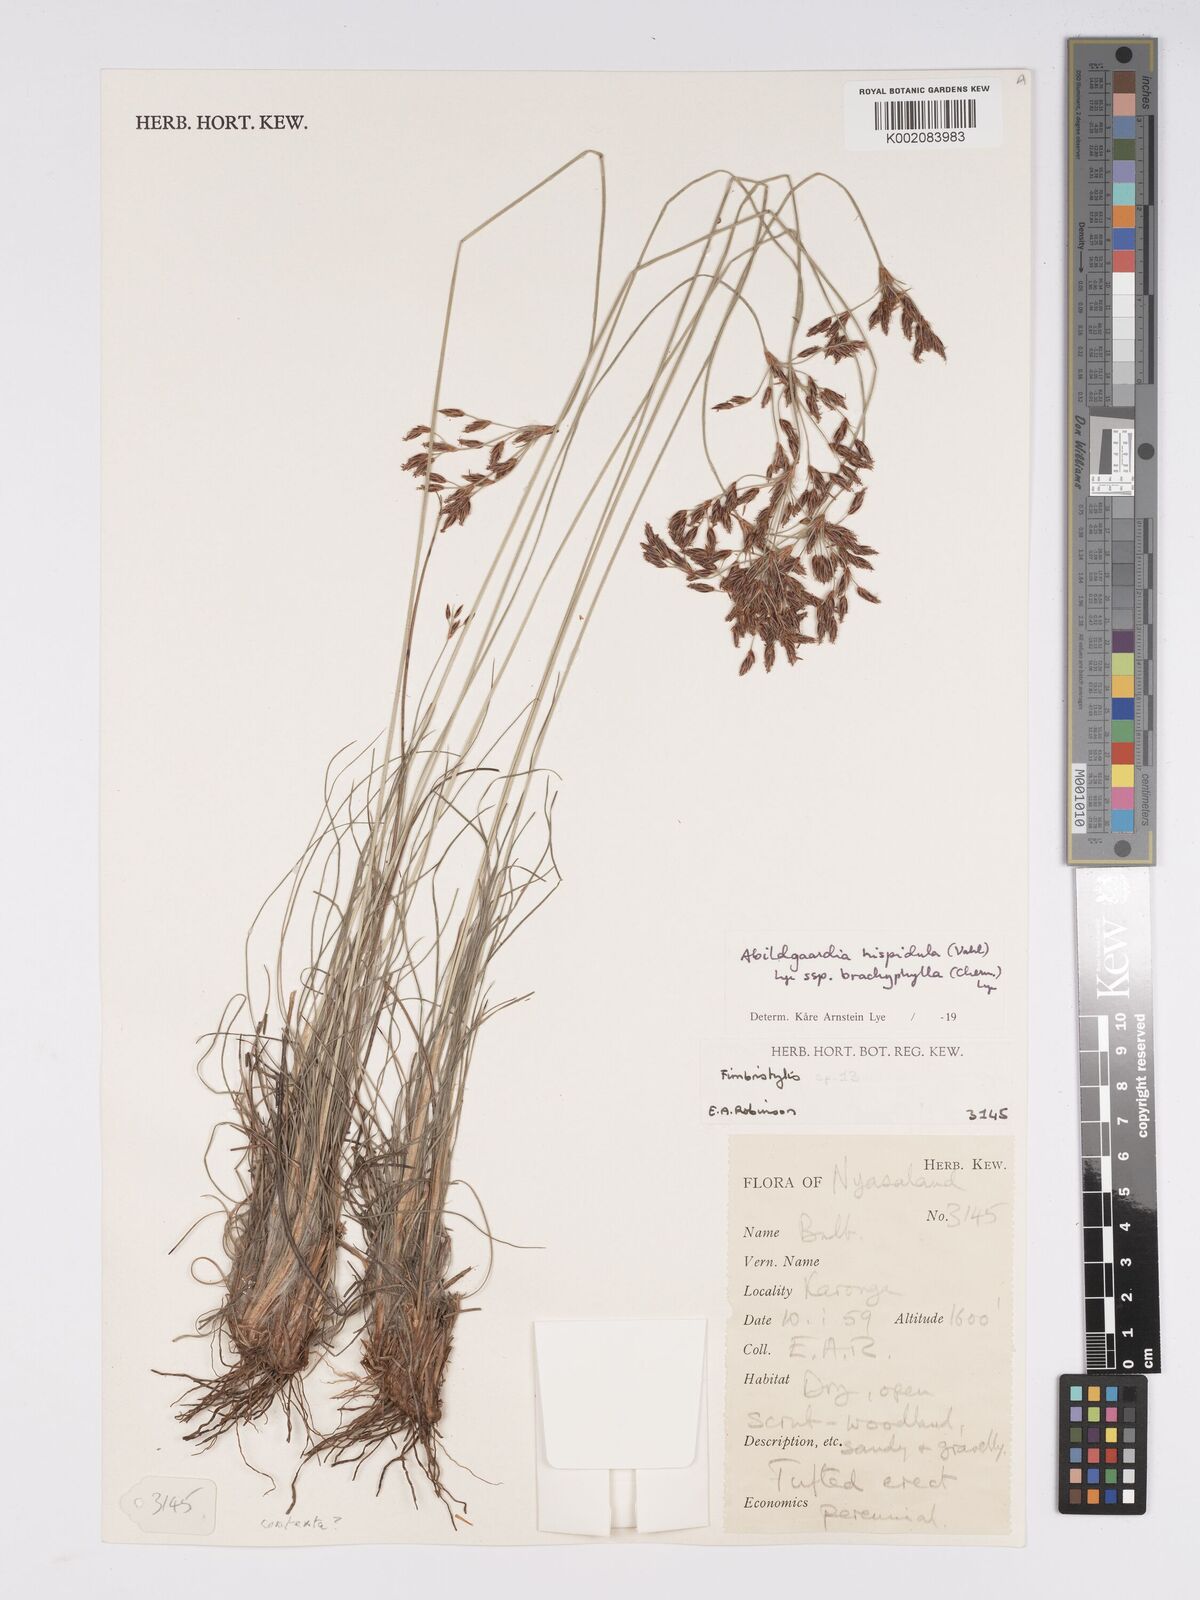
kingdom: Plantae
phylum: Tracheophyta
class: Liliopsida
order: Poales
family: Cyperaceae
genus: Bulbostylis
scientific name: Bulbostylis hispidula
